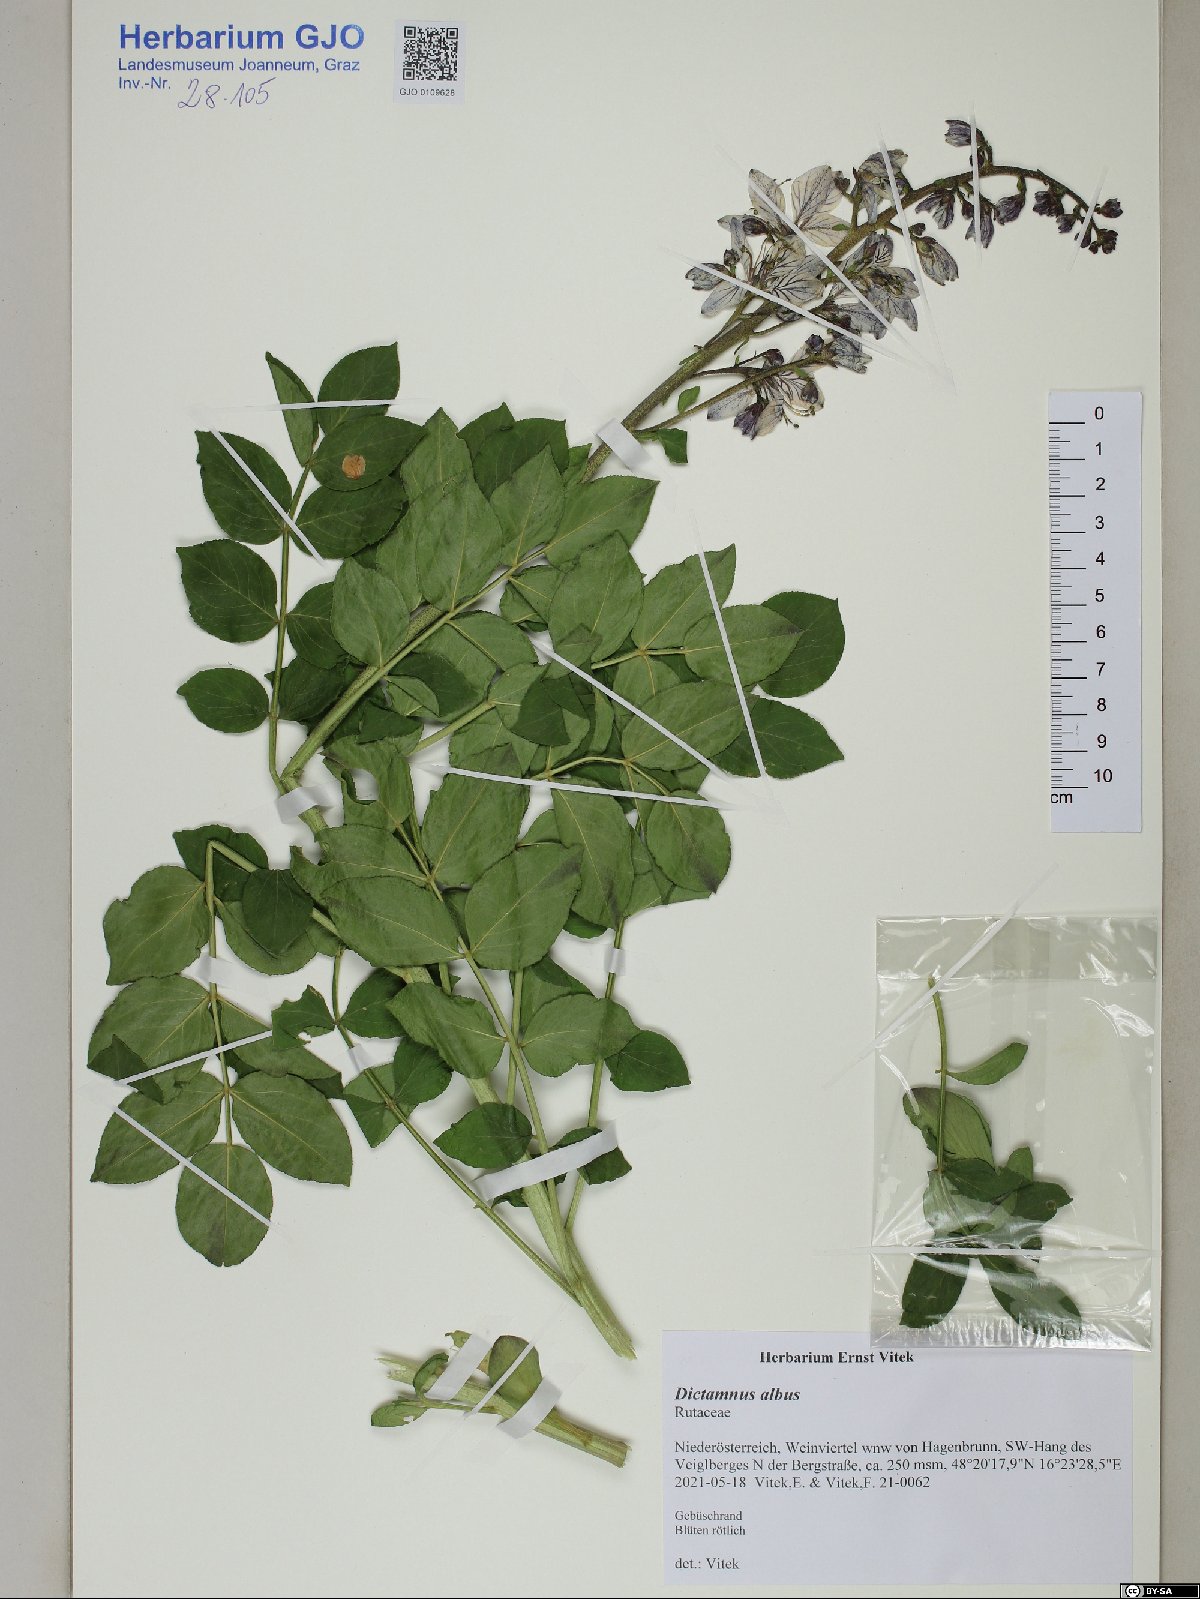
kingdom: Plantae
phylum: Tracheophyta
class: Magnoliopsida
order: Sapindales
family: Rutaceae
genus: Dictamnus
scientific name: Dictamnus albus
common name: Gasplant
